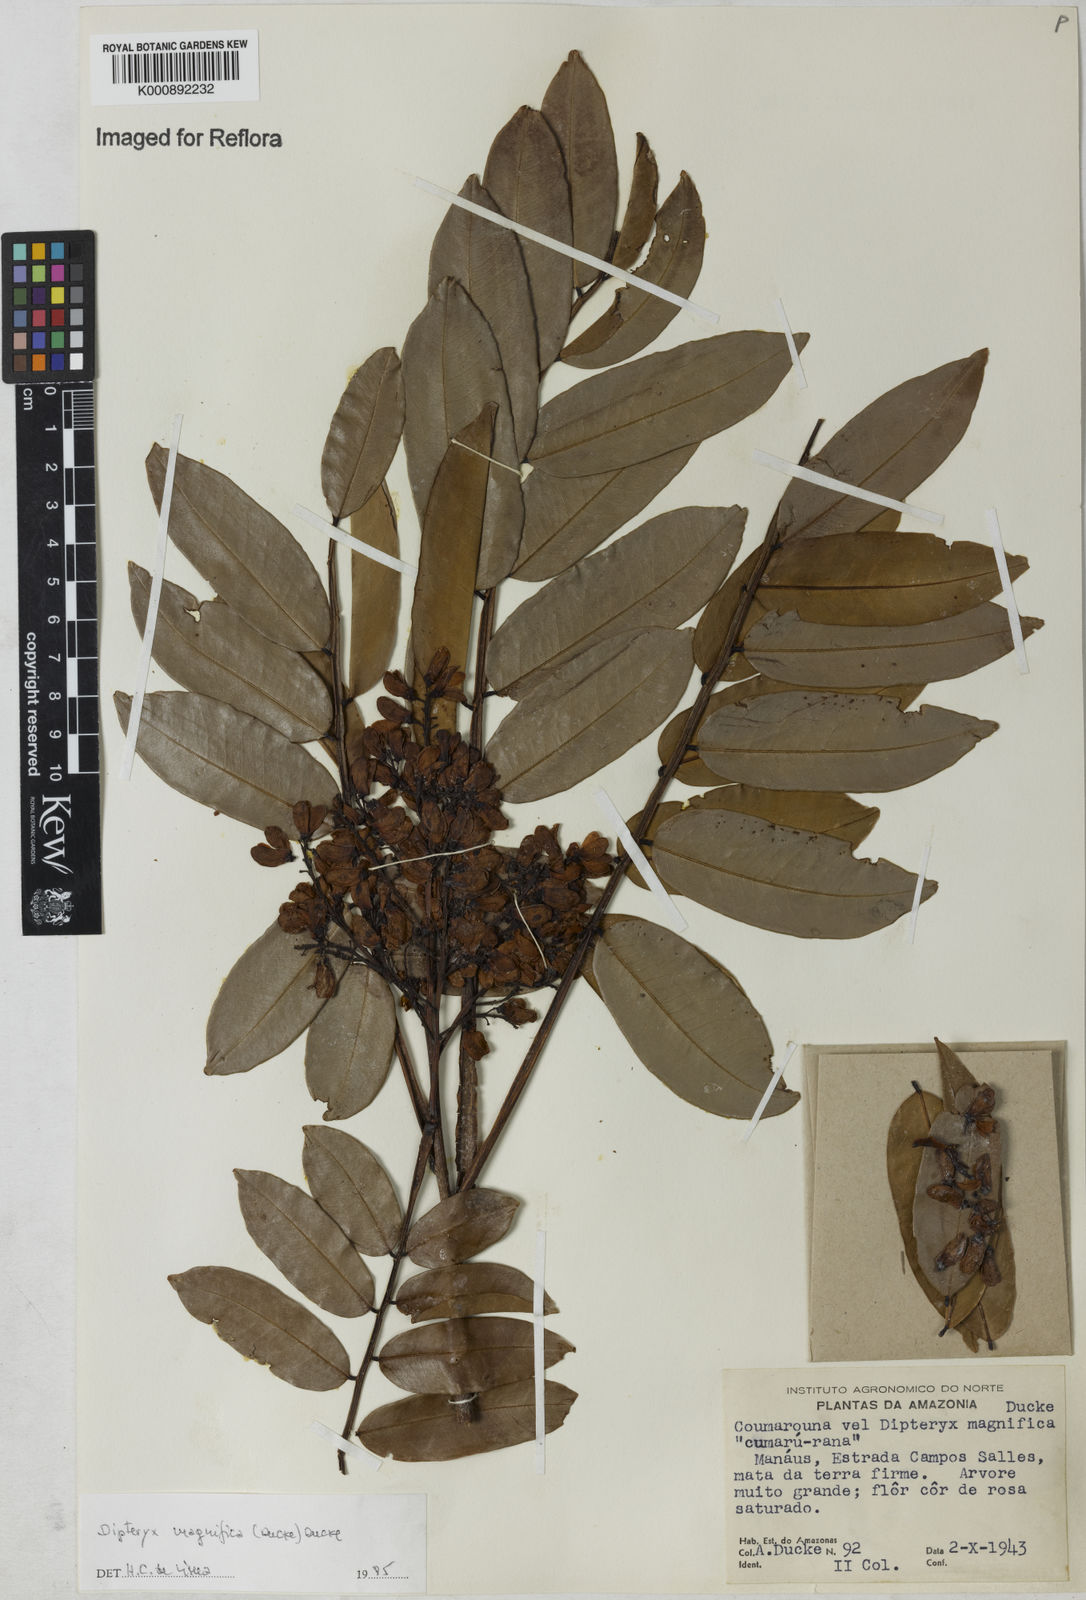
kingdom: Plantae
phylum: Tracheophyta
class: Magnoliopsida
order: Fabales
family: Fabaceae
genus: Dipteryx
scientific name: Dipteryx magnifica
